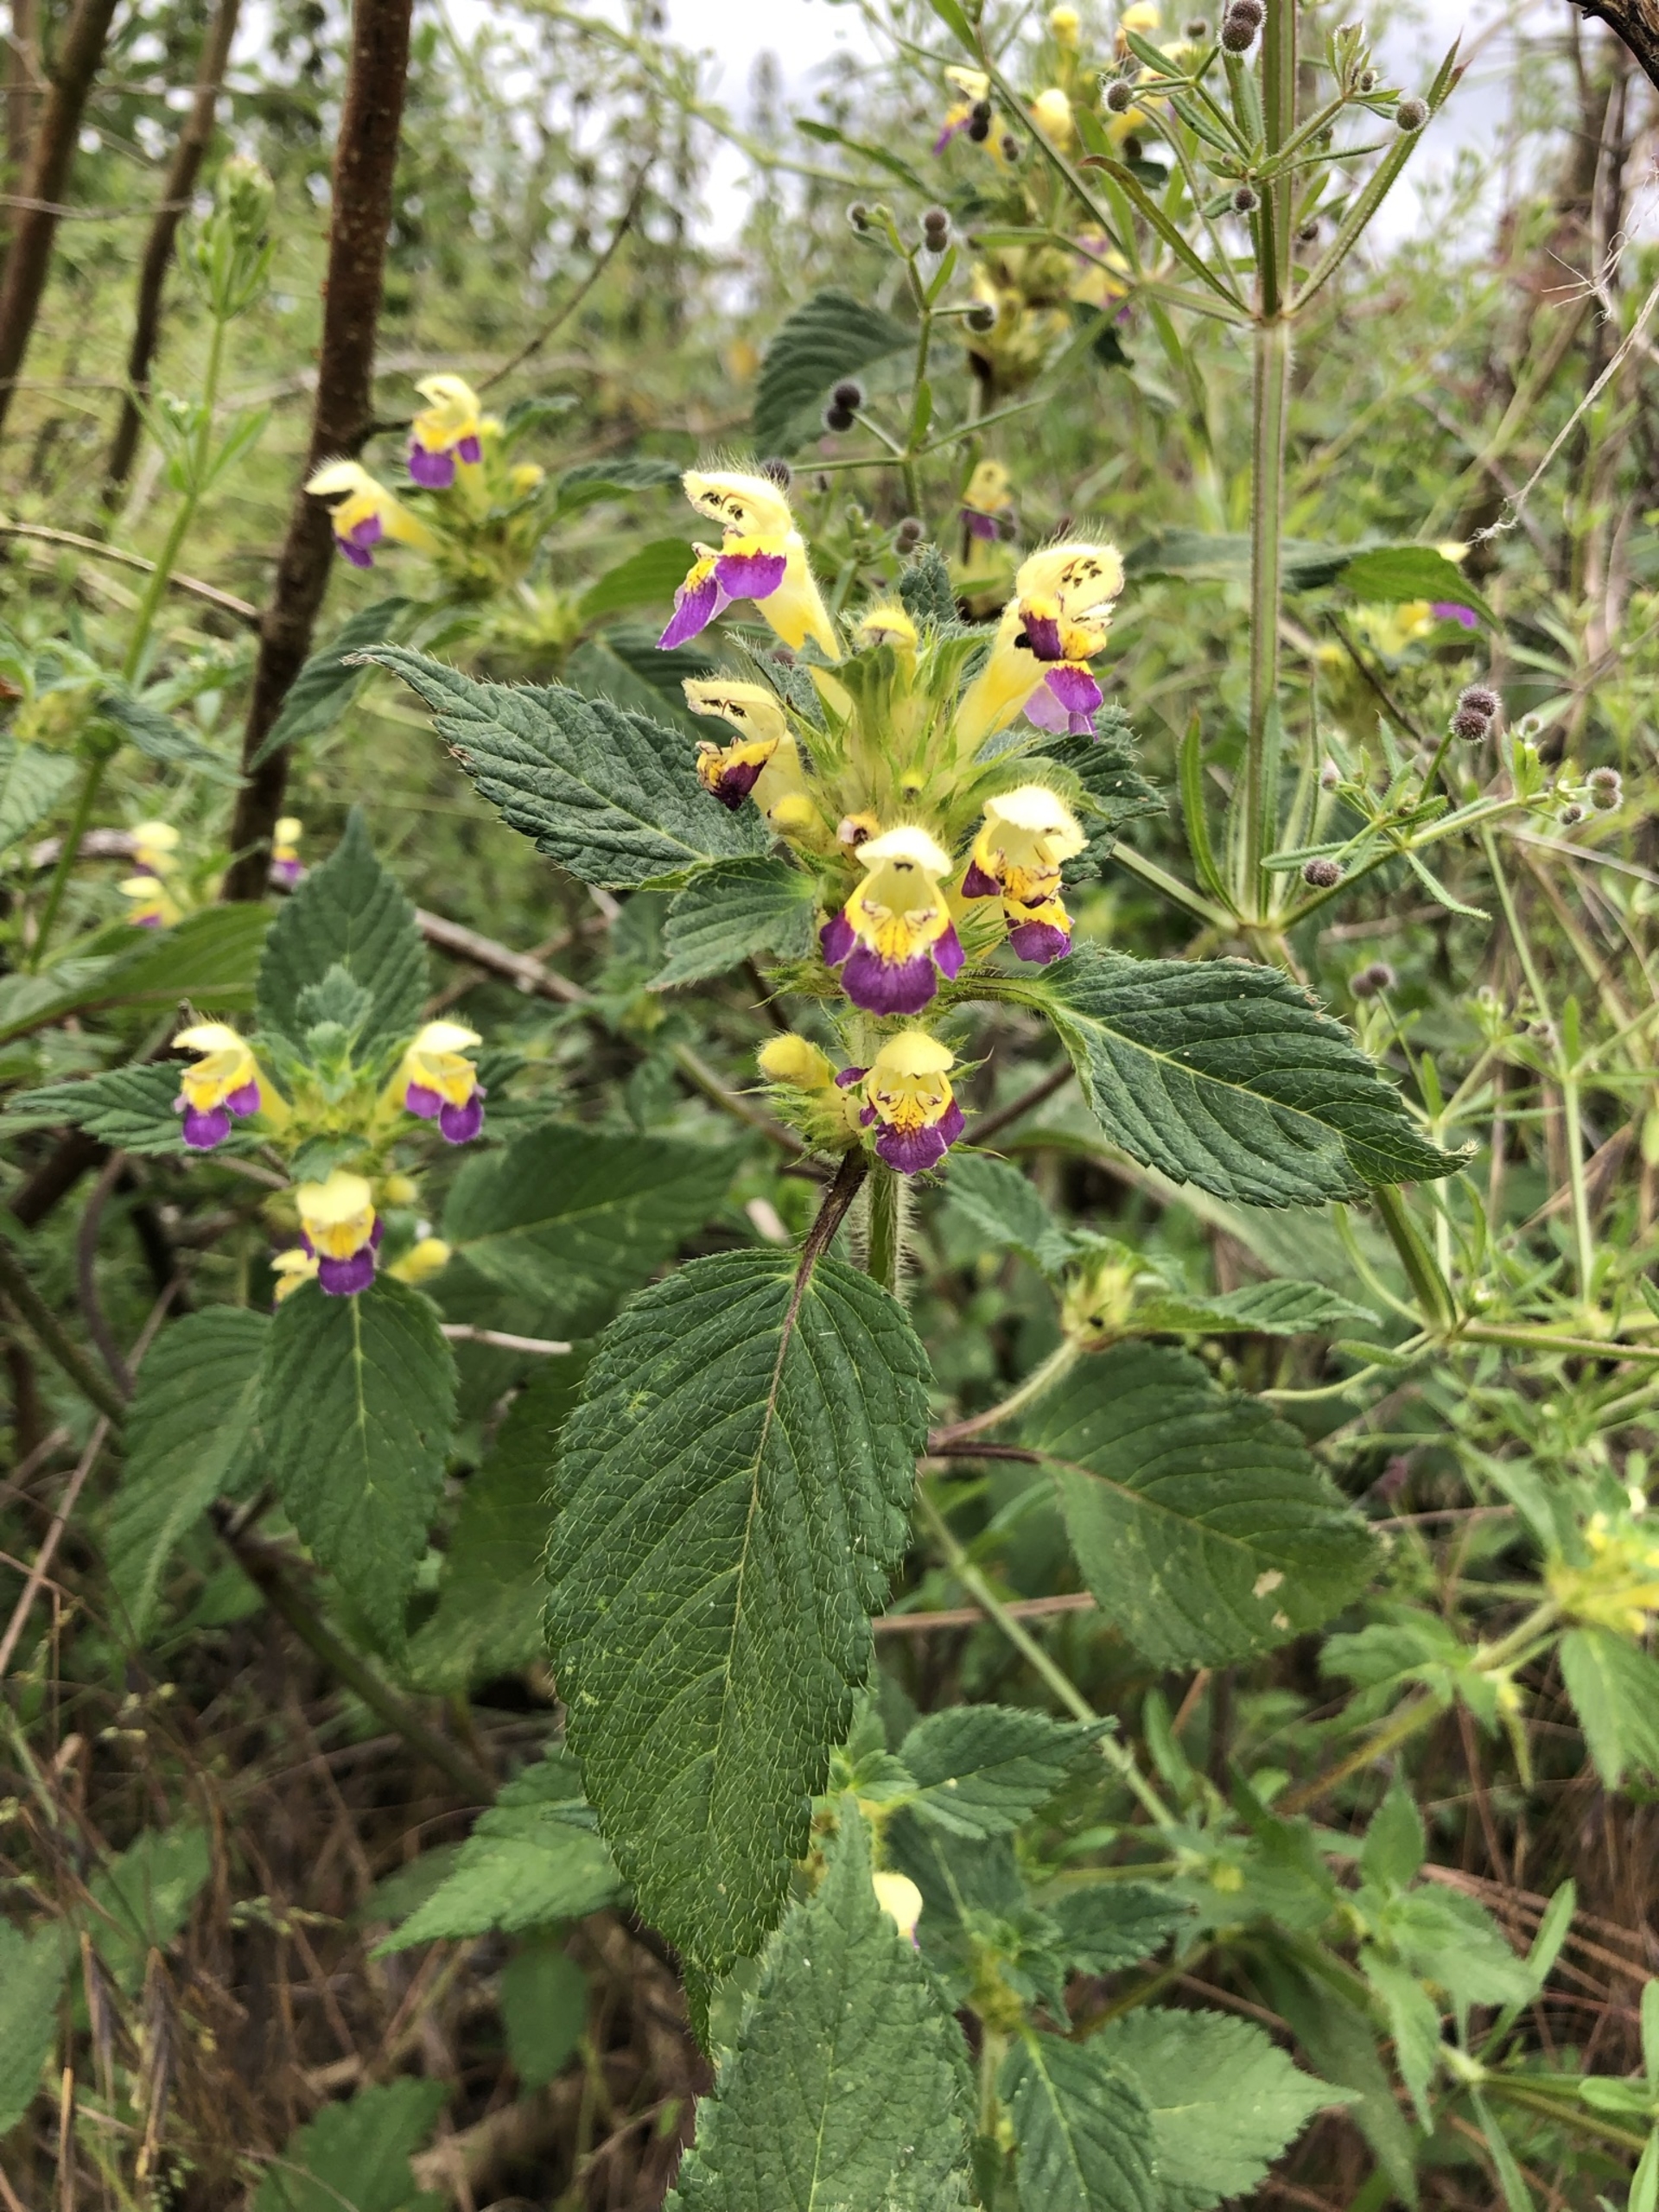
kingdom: Plantae
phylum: Tracheophyta
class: Magnoliopsida
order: Lamiales
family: Lamiaceae
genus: Galeopsis
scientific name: Galeopsis speciosa
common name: Hamp-hanekro
